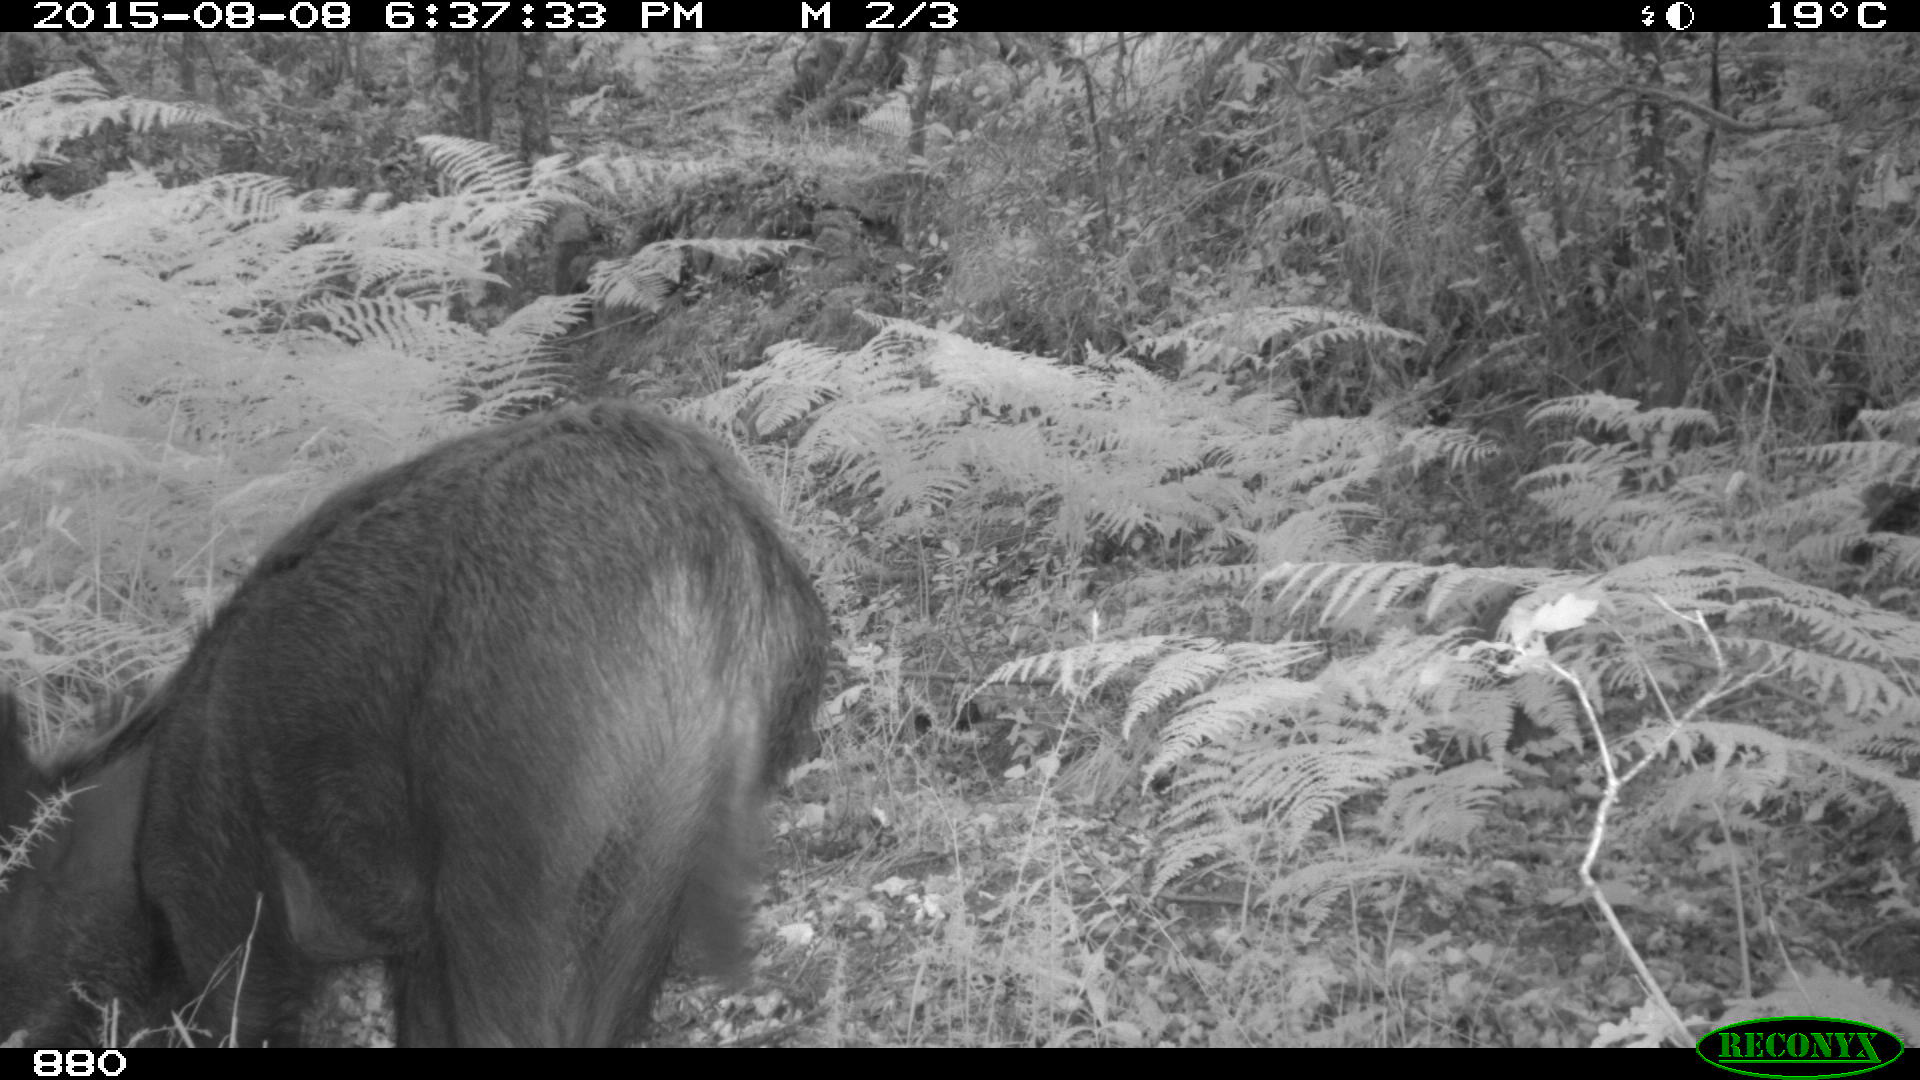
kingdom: Animalia
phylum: Chordata
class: Mammalia
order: Artiodactyla
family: Suidae
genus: Sus
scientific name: Sus scrofa
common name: Wild boar
